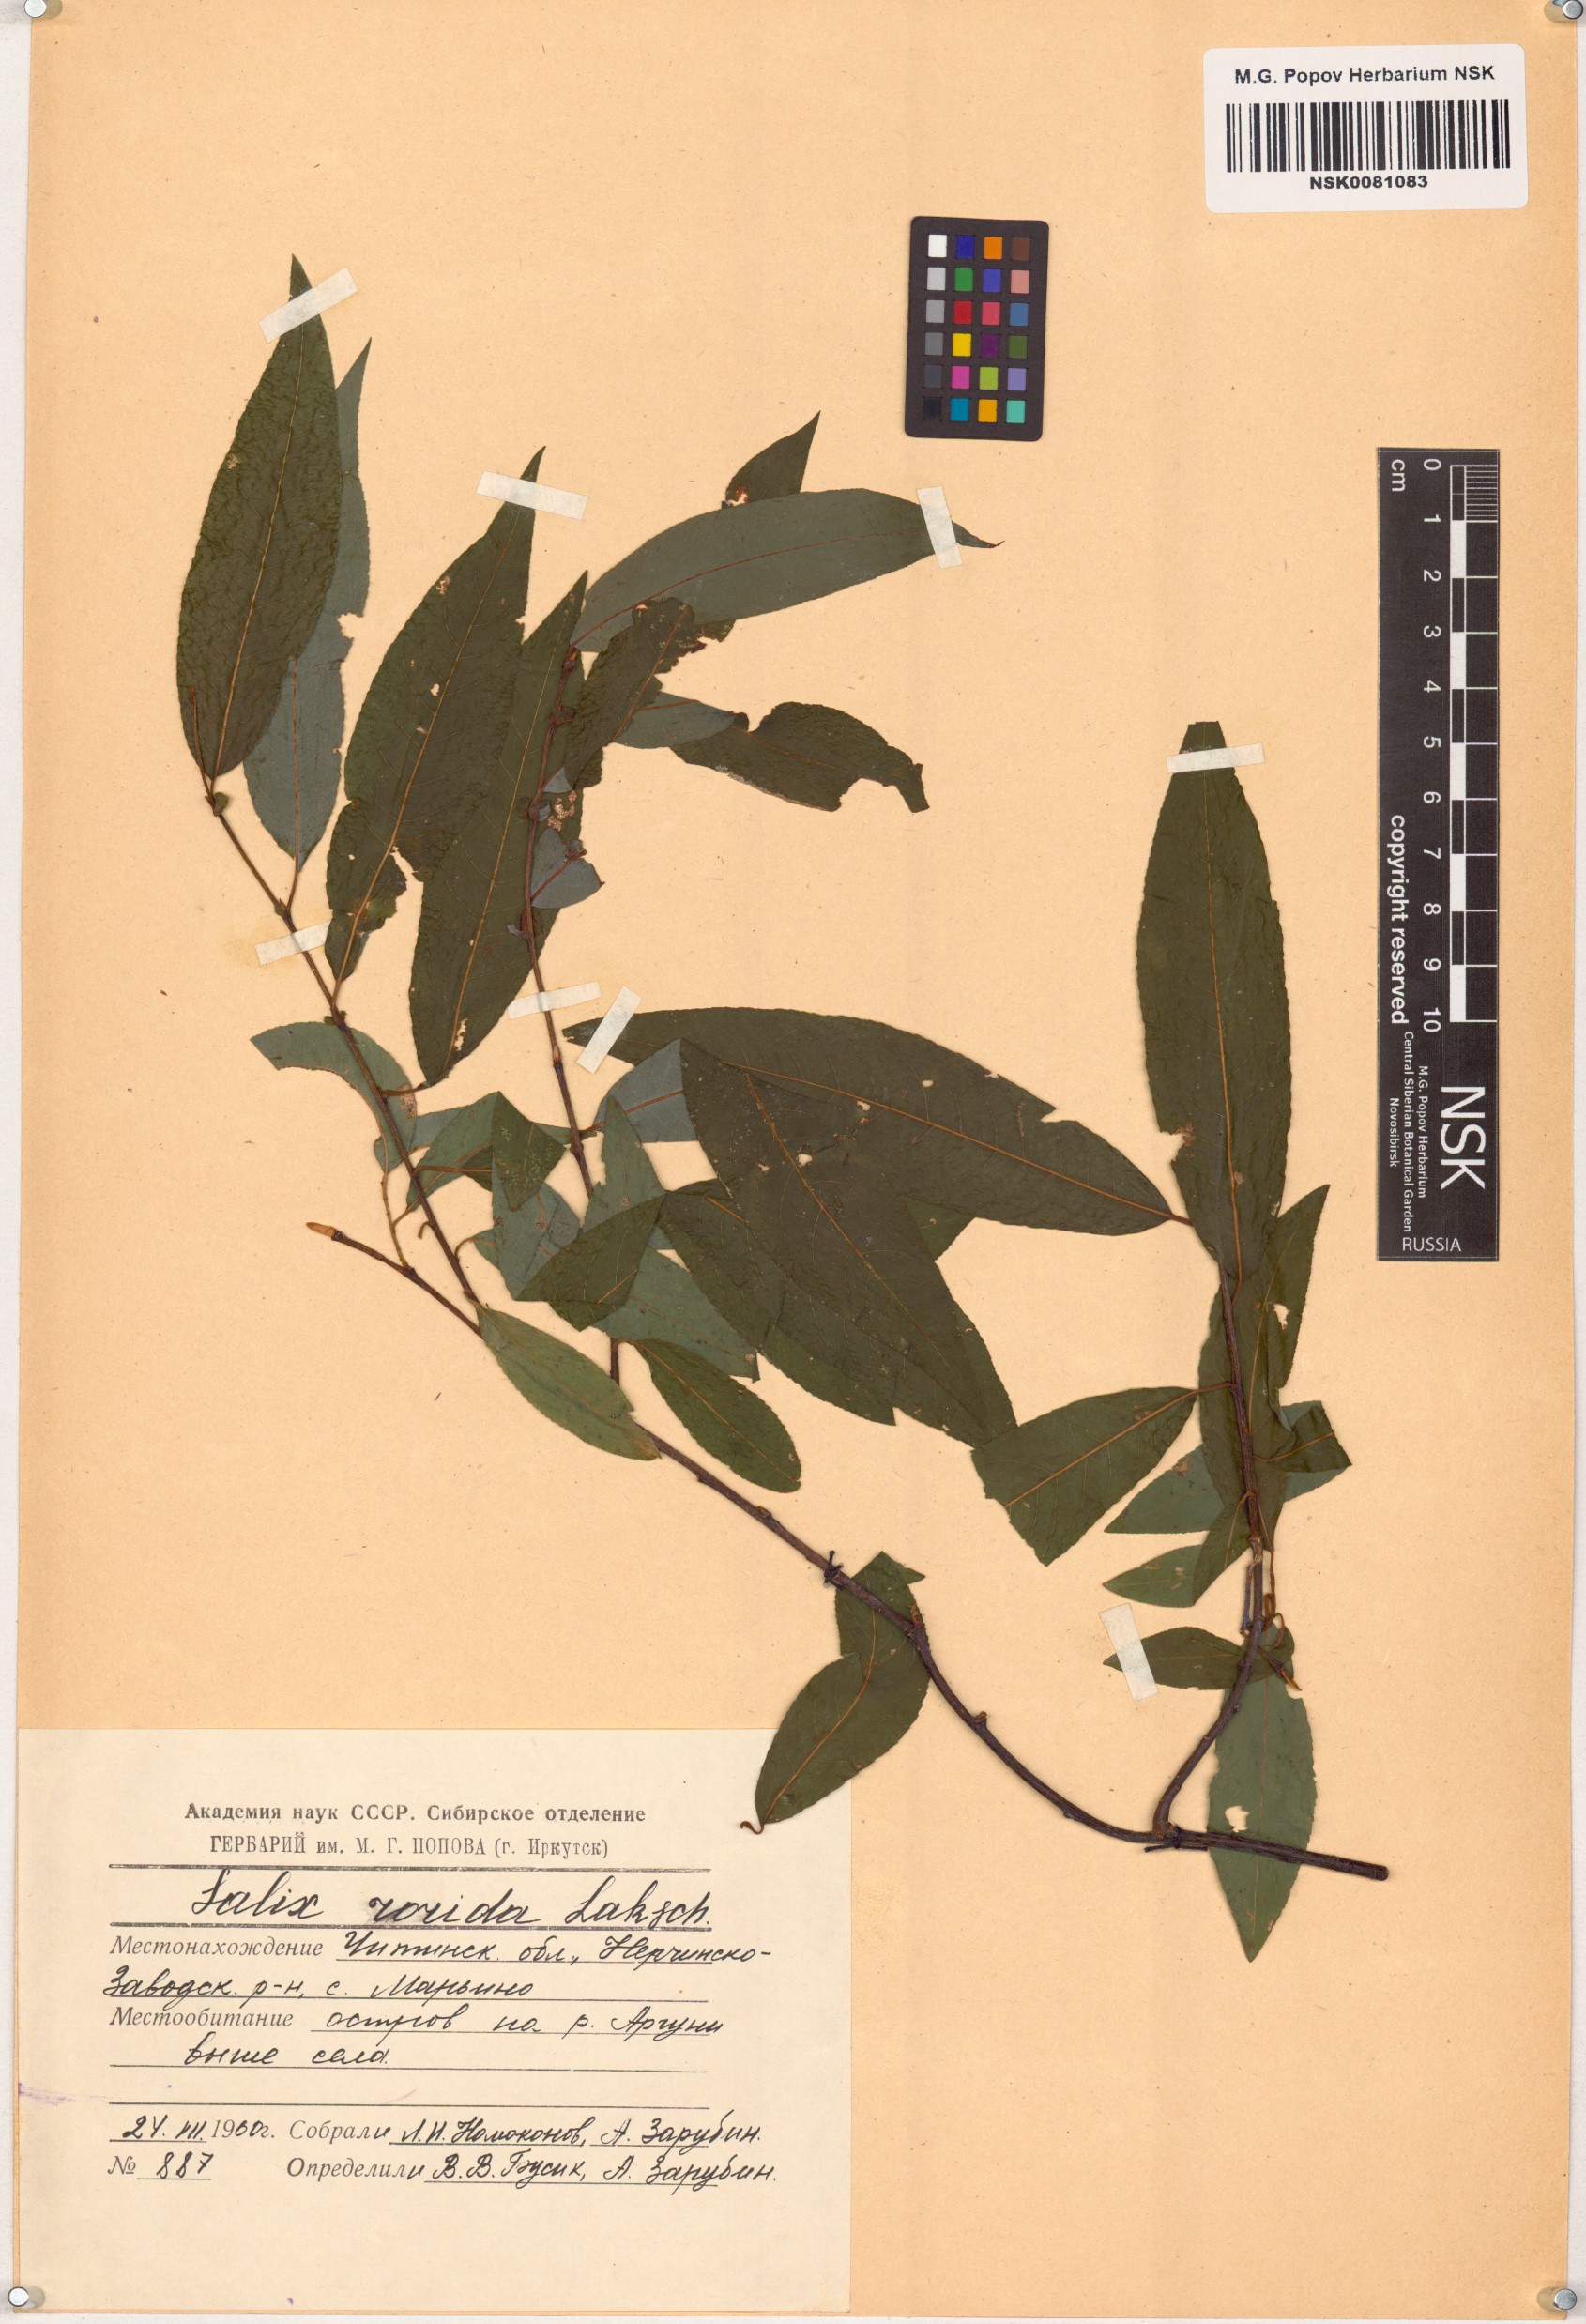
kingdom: Plantae
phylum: Tracheophyta
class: Magnoliopsida
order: Malpighiales
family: Salicaceae
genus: Salix
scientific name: Salix rorida
